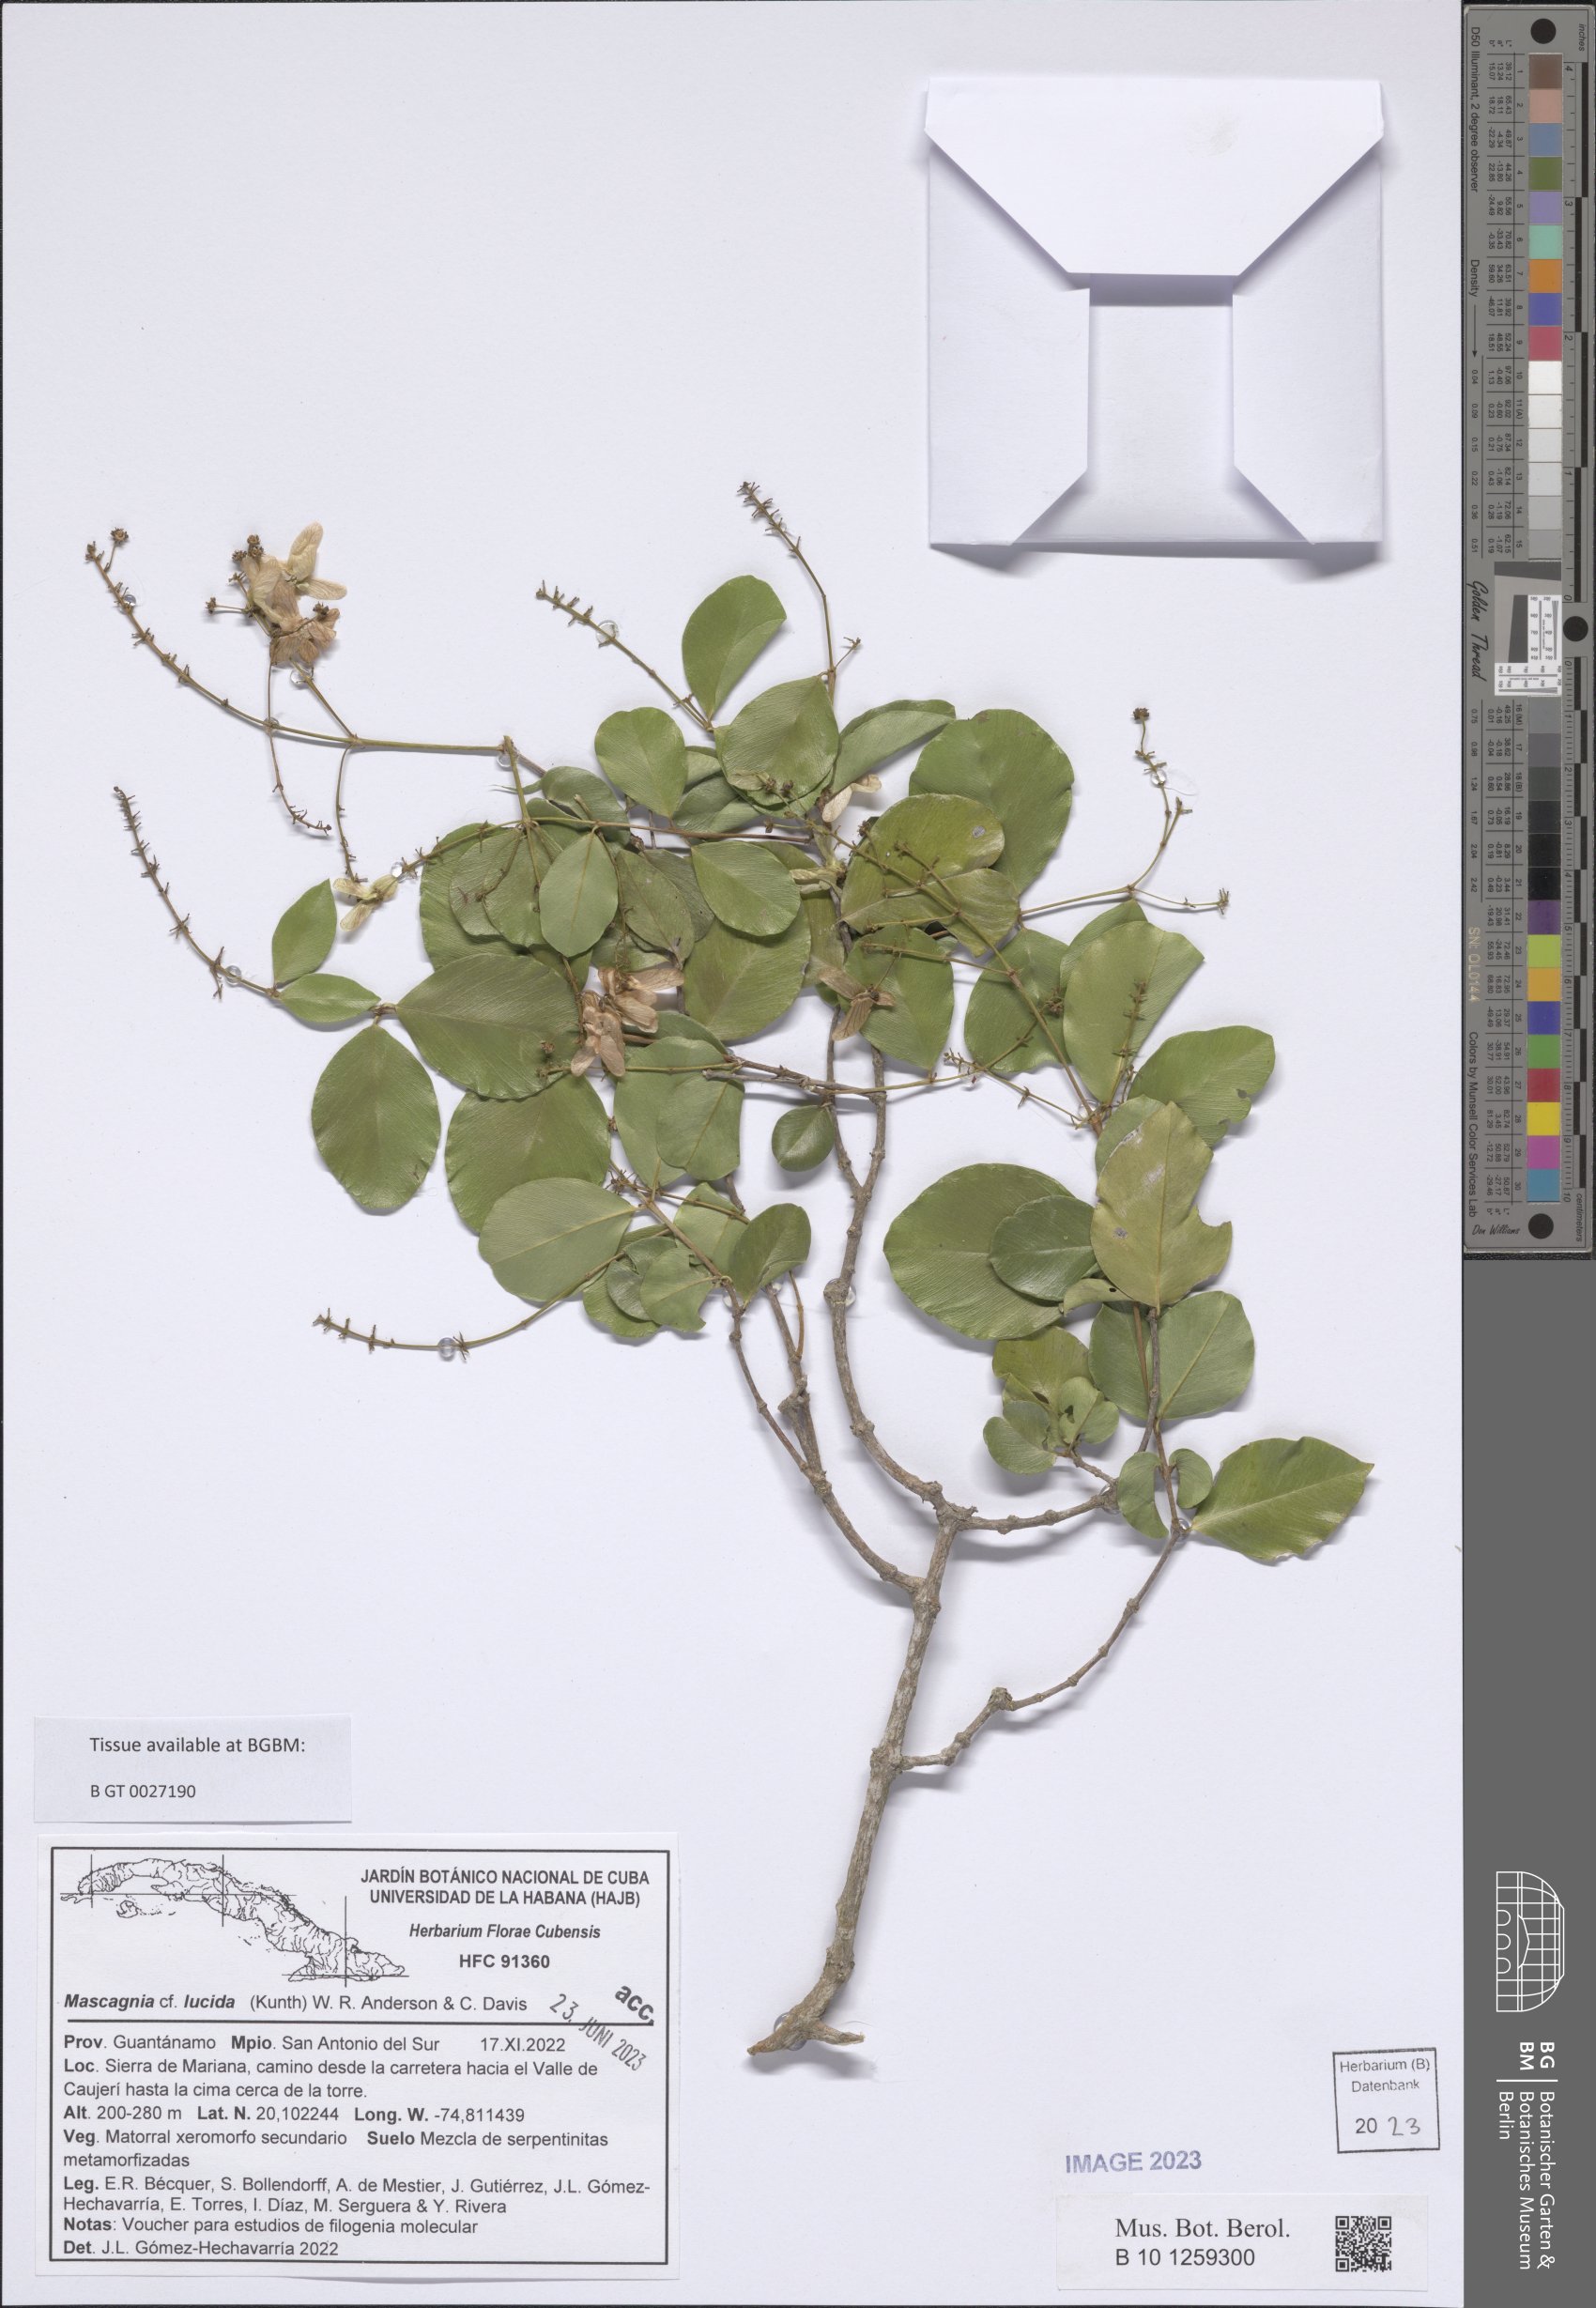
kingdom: Plantae
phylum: Tracheophyta
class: Magnoliopsida
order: Malpighiales
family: Malpighiaceae
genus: Mascagnia
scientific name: Mascagnia lucida
